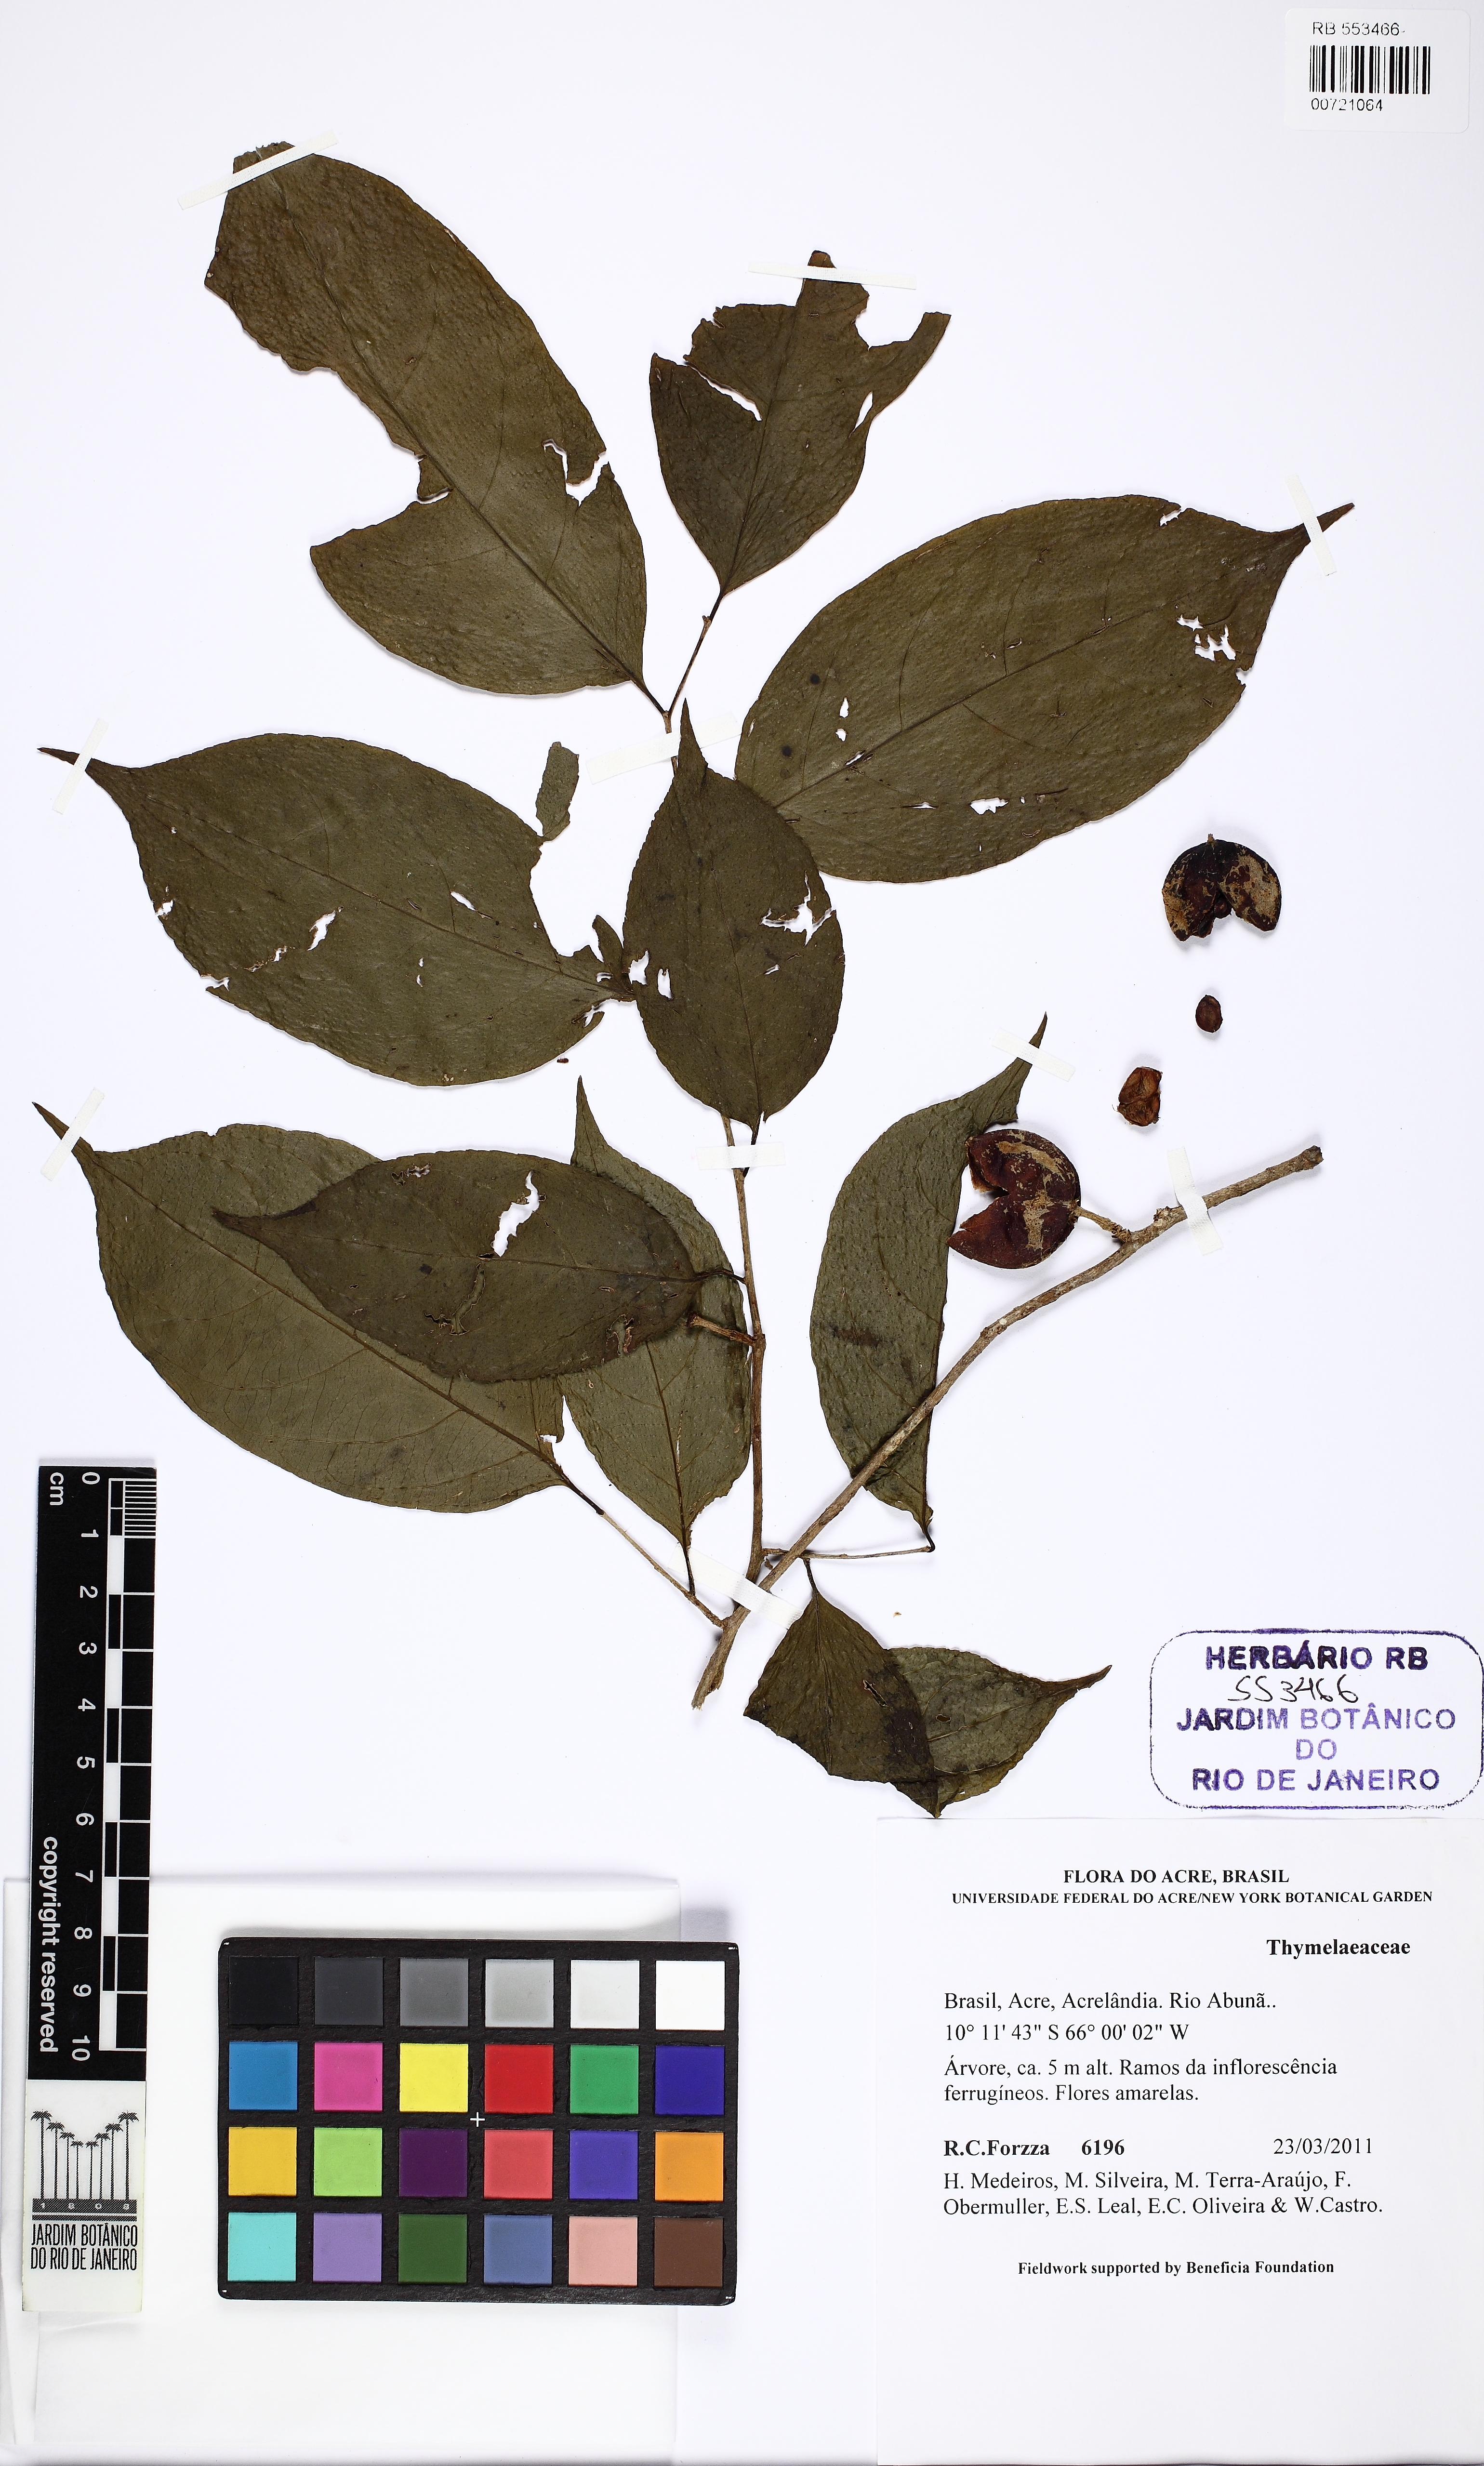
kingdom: Plantae
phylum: Tracheophyta
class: Magnoliopsida
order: Malpighiales
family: Salicaceae
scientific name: Salicaceae
